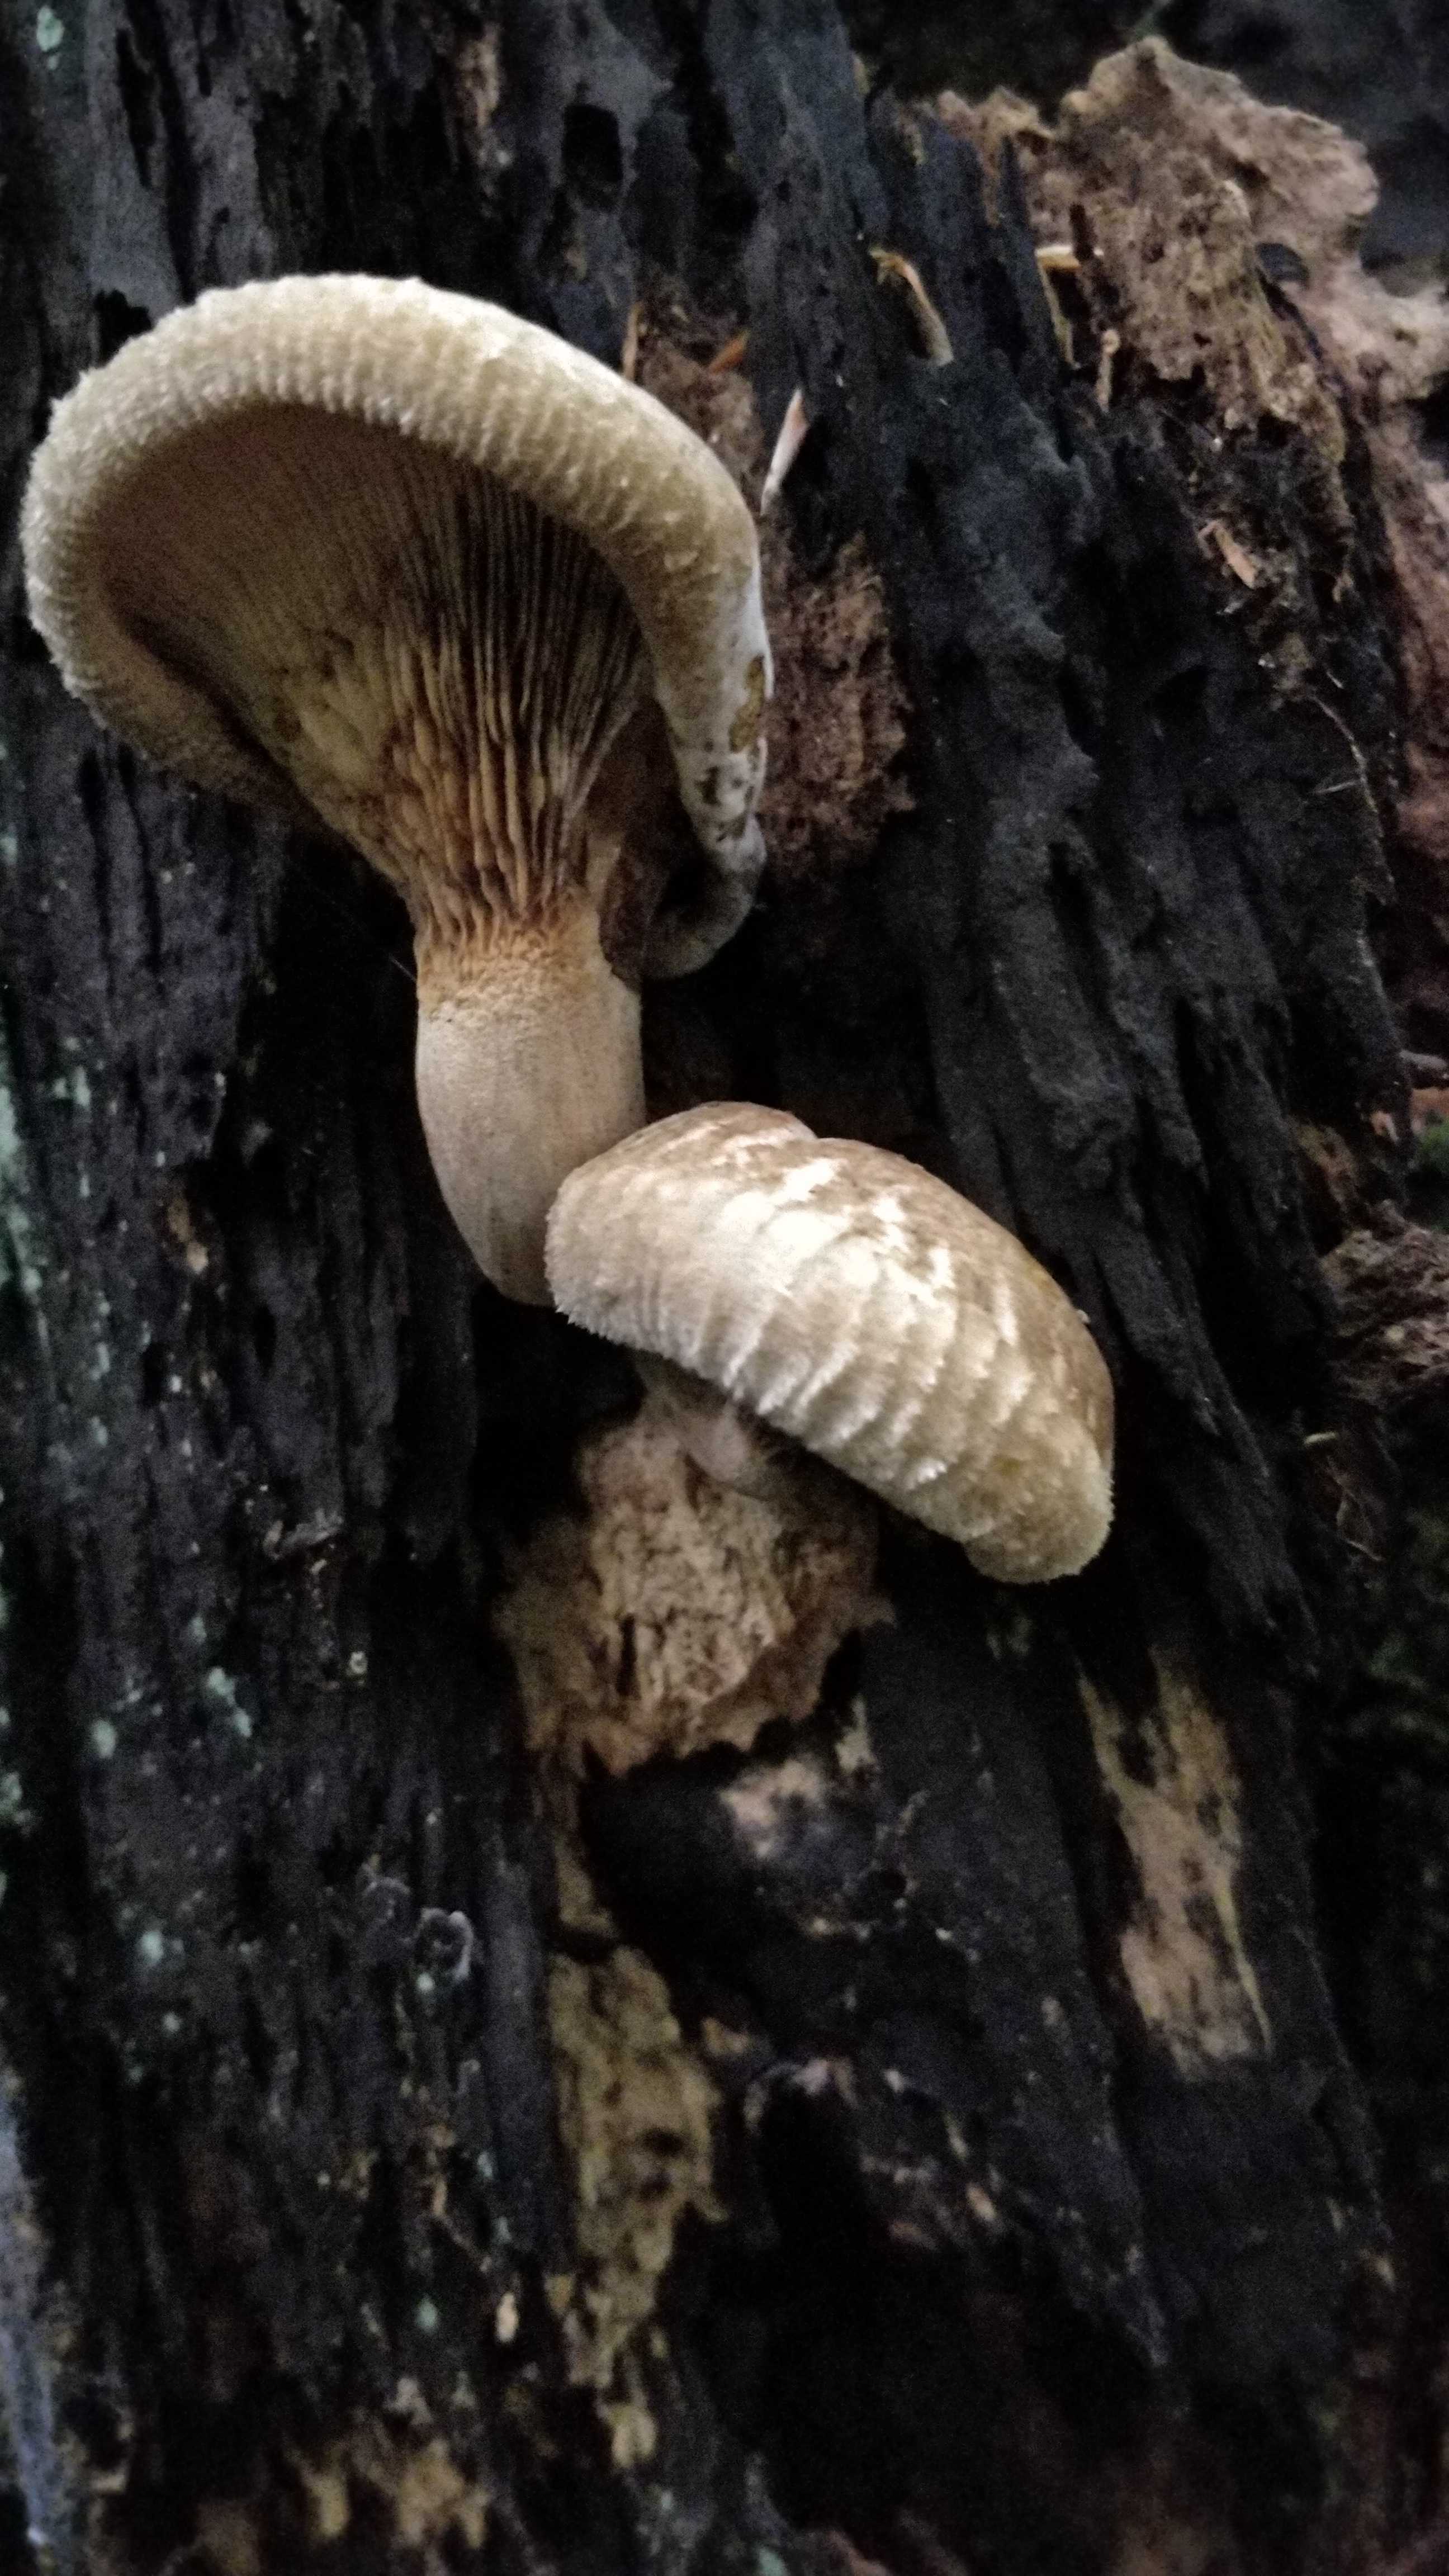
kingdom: Fungi
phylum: Basidiomycota
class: Agaricomycetes
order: Boletales
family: Paxillaceae
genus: Paxillus
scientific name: Paxillus
